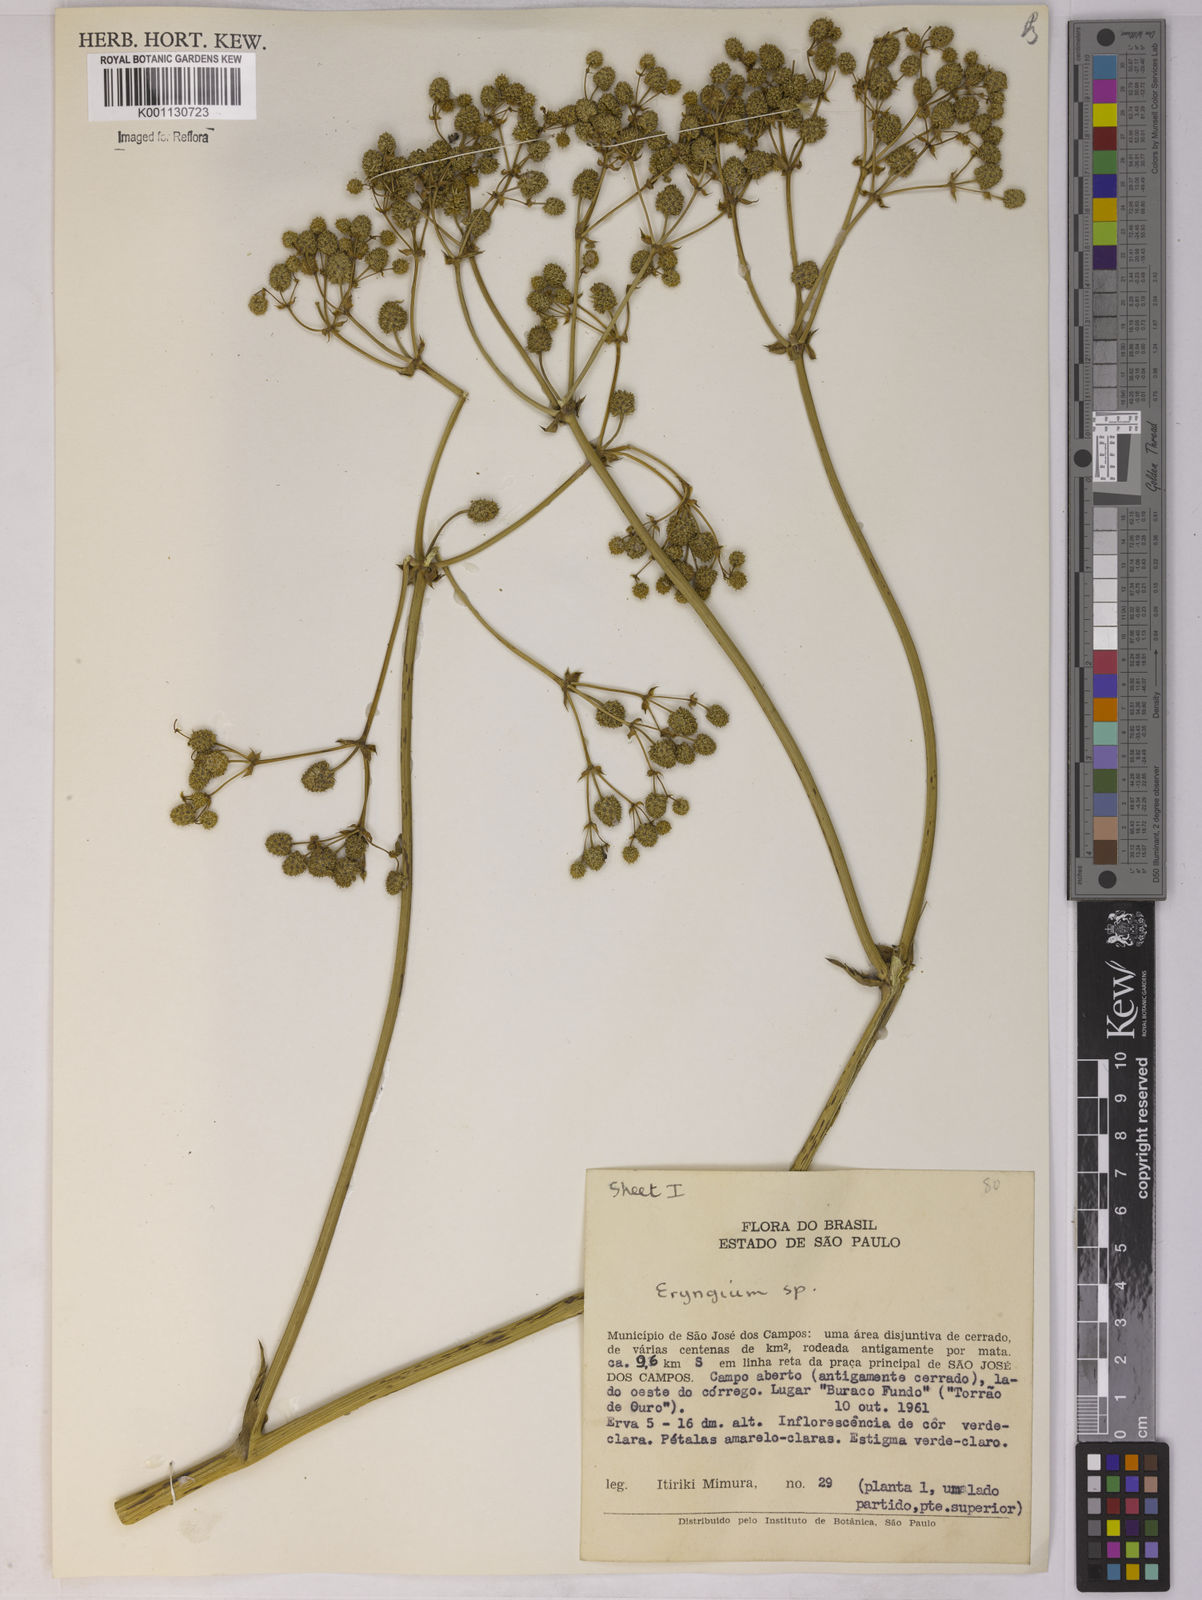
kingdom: Plantae
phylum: Tracheophyta
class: Magnoliopsida
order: Apiales
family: Apiaceae
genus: Eryngium
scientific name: Eryngium
